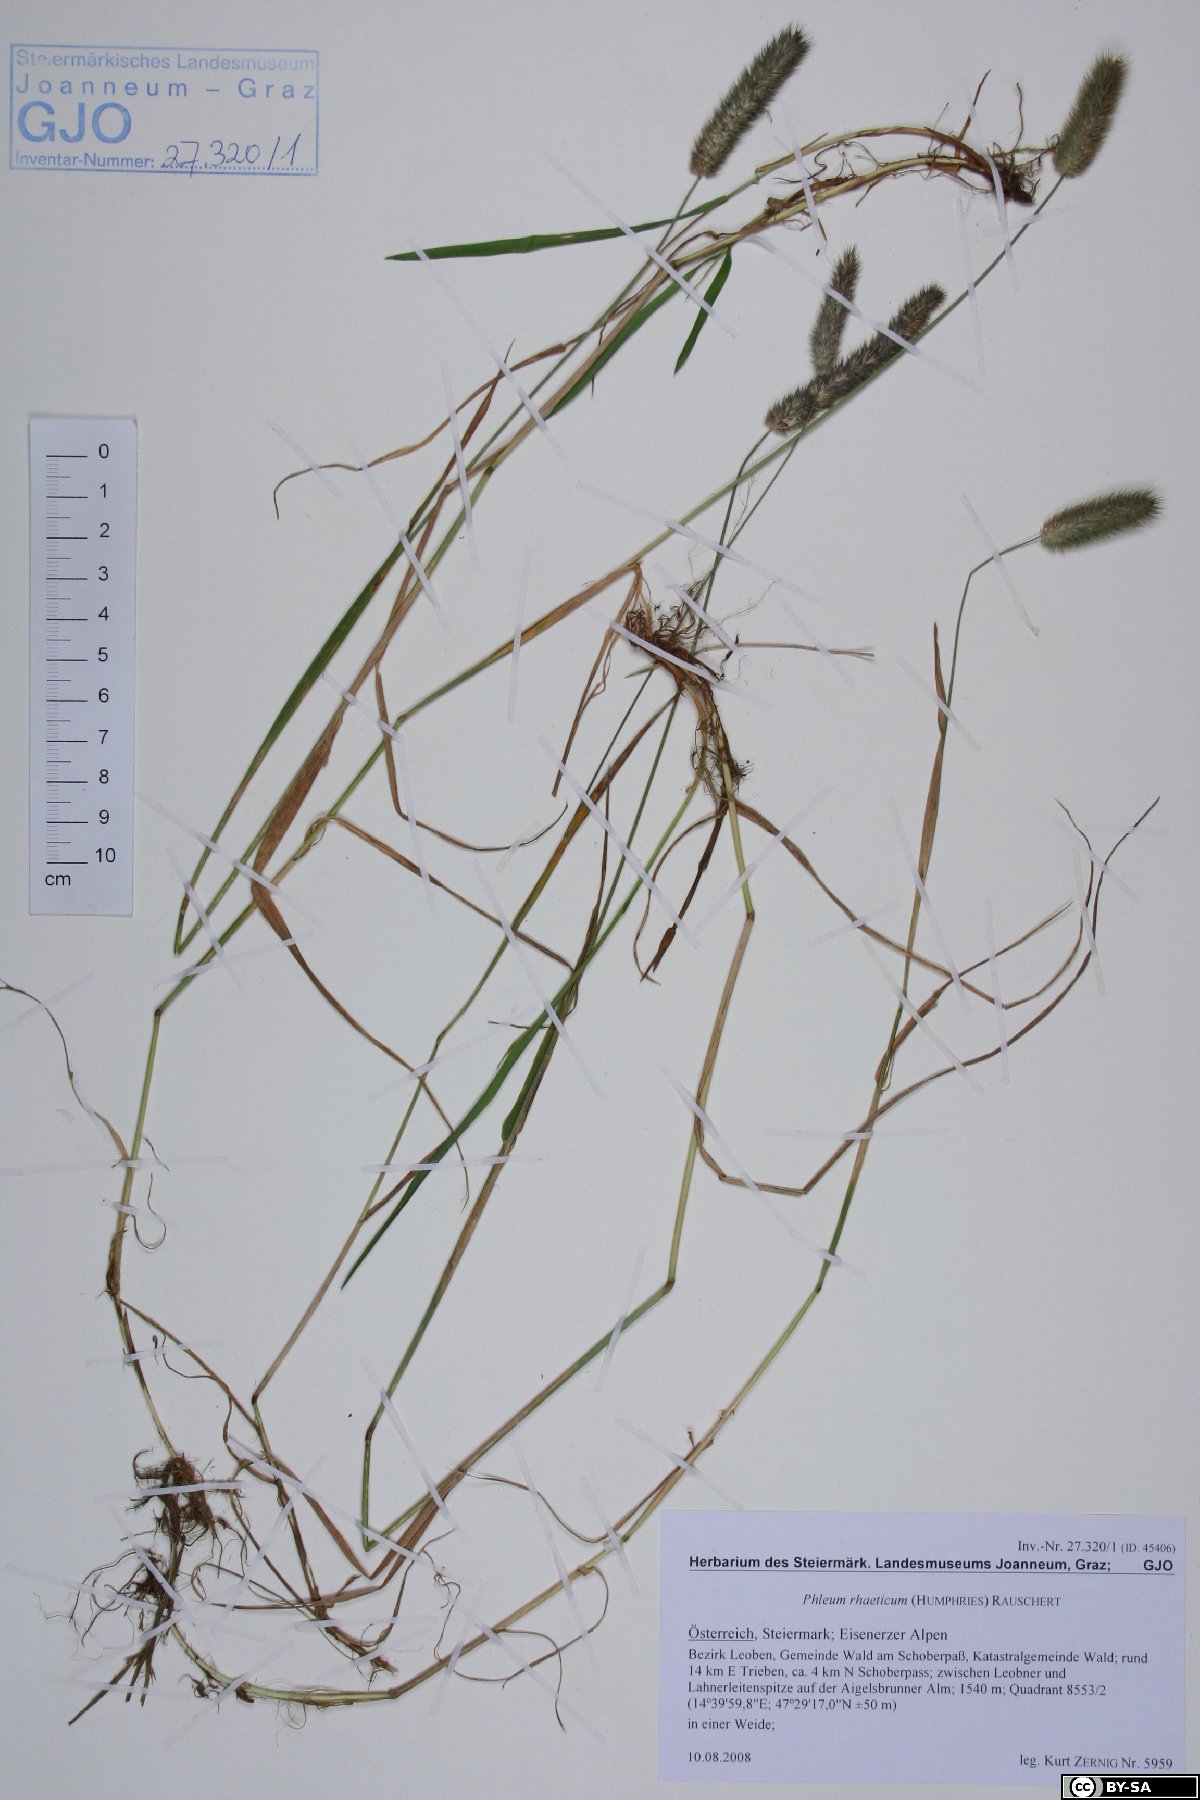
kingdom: Plantae
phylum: Tracheophyta
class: Liliopsida
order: Poales
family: Poaceae
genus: Phleum
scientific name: Phleum alpinum
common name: Alpine cat's-tail
